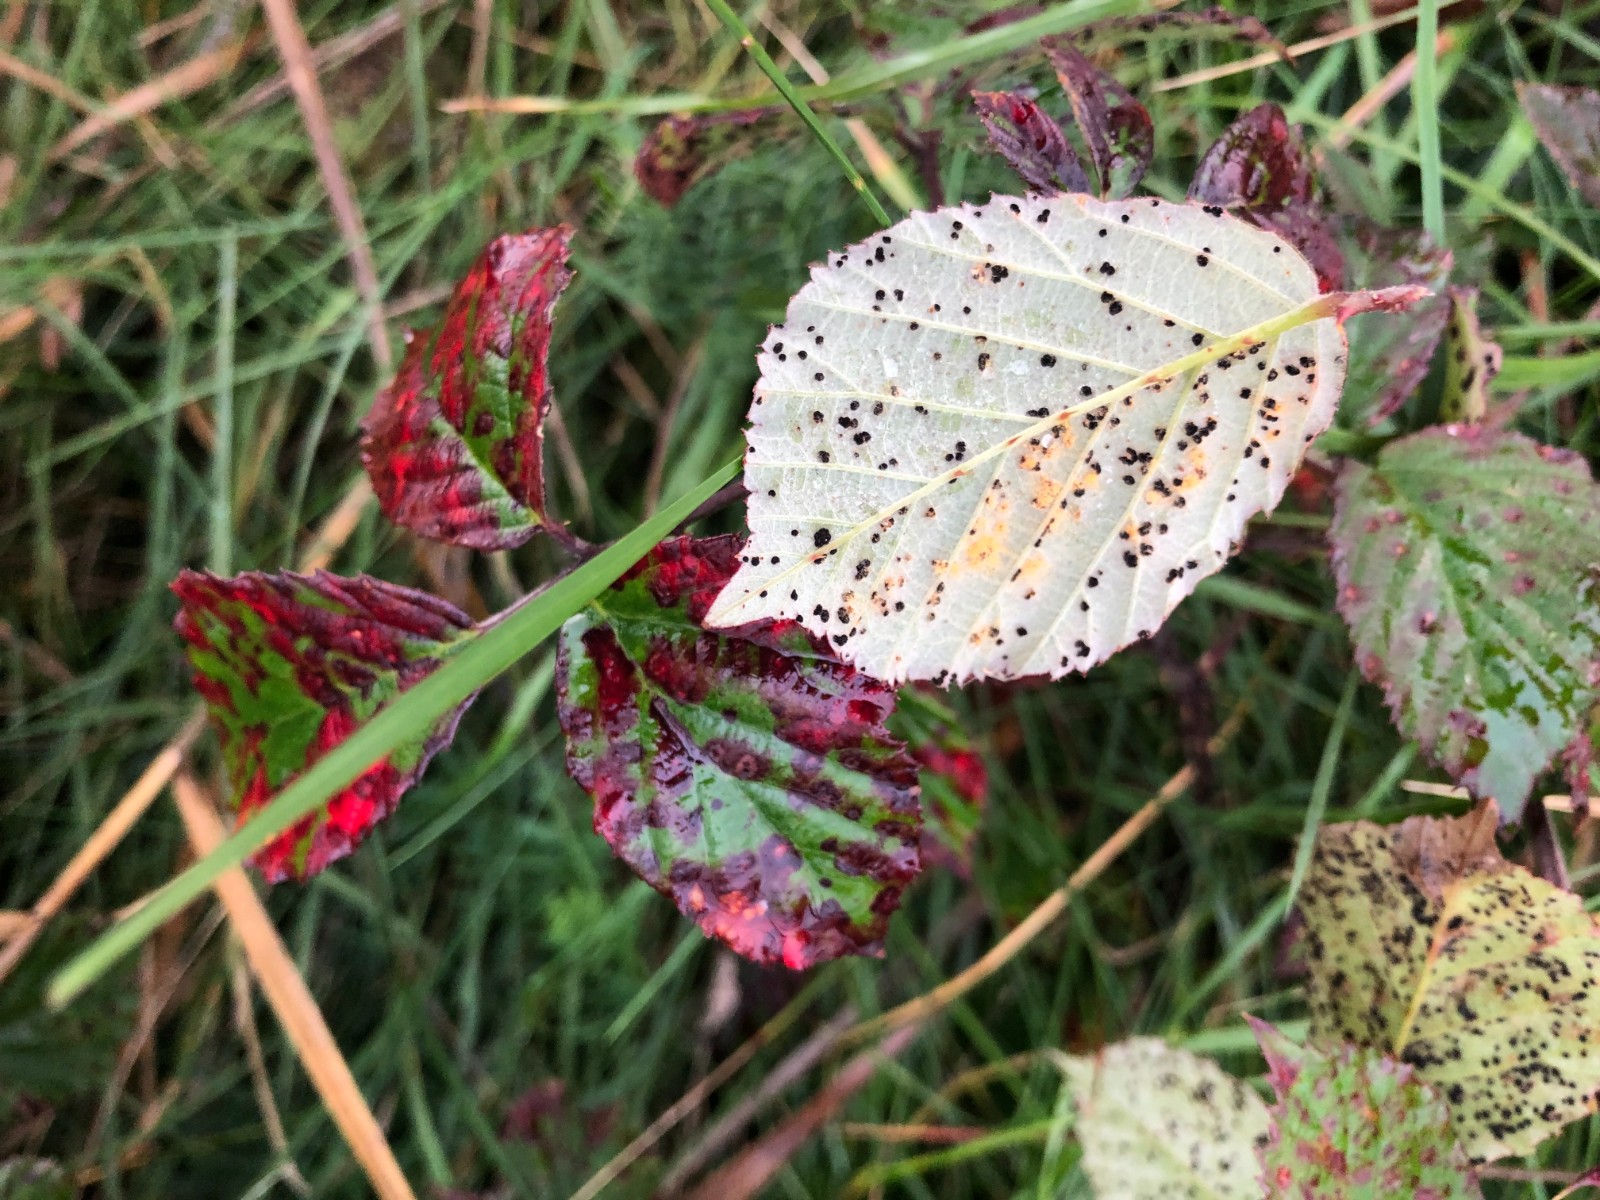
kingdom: Fungi
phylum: Basidiomycota
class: Pucciniomycetes
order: Pucciniales
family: Phragmidiaceae
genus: Phragmidium
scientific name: Phragmidium violaceum
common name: violet flercellerust
